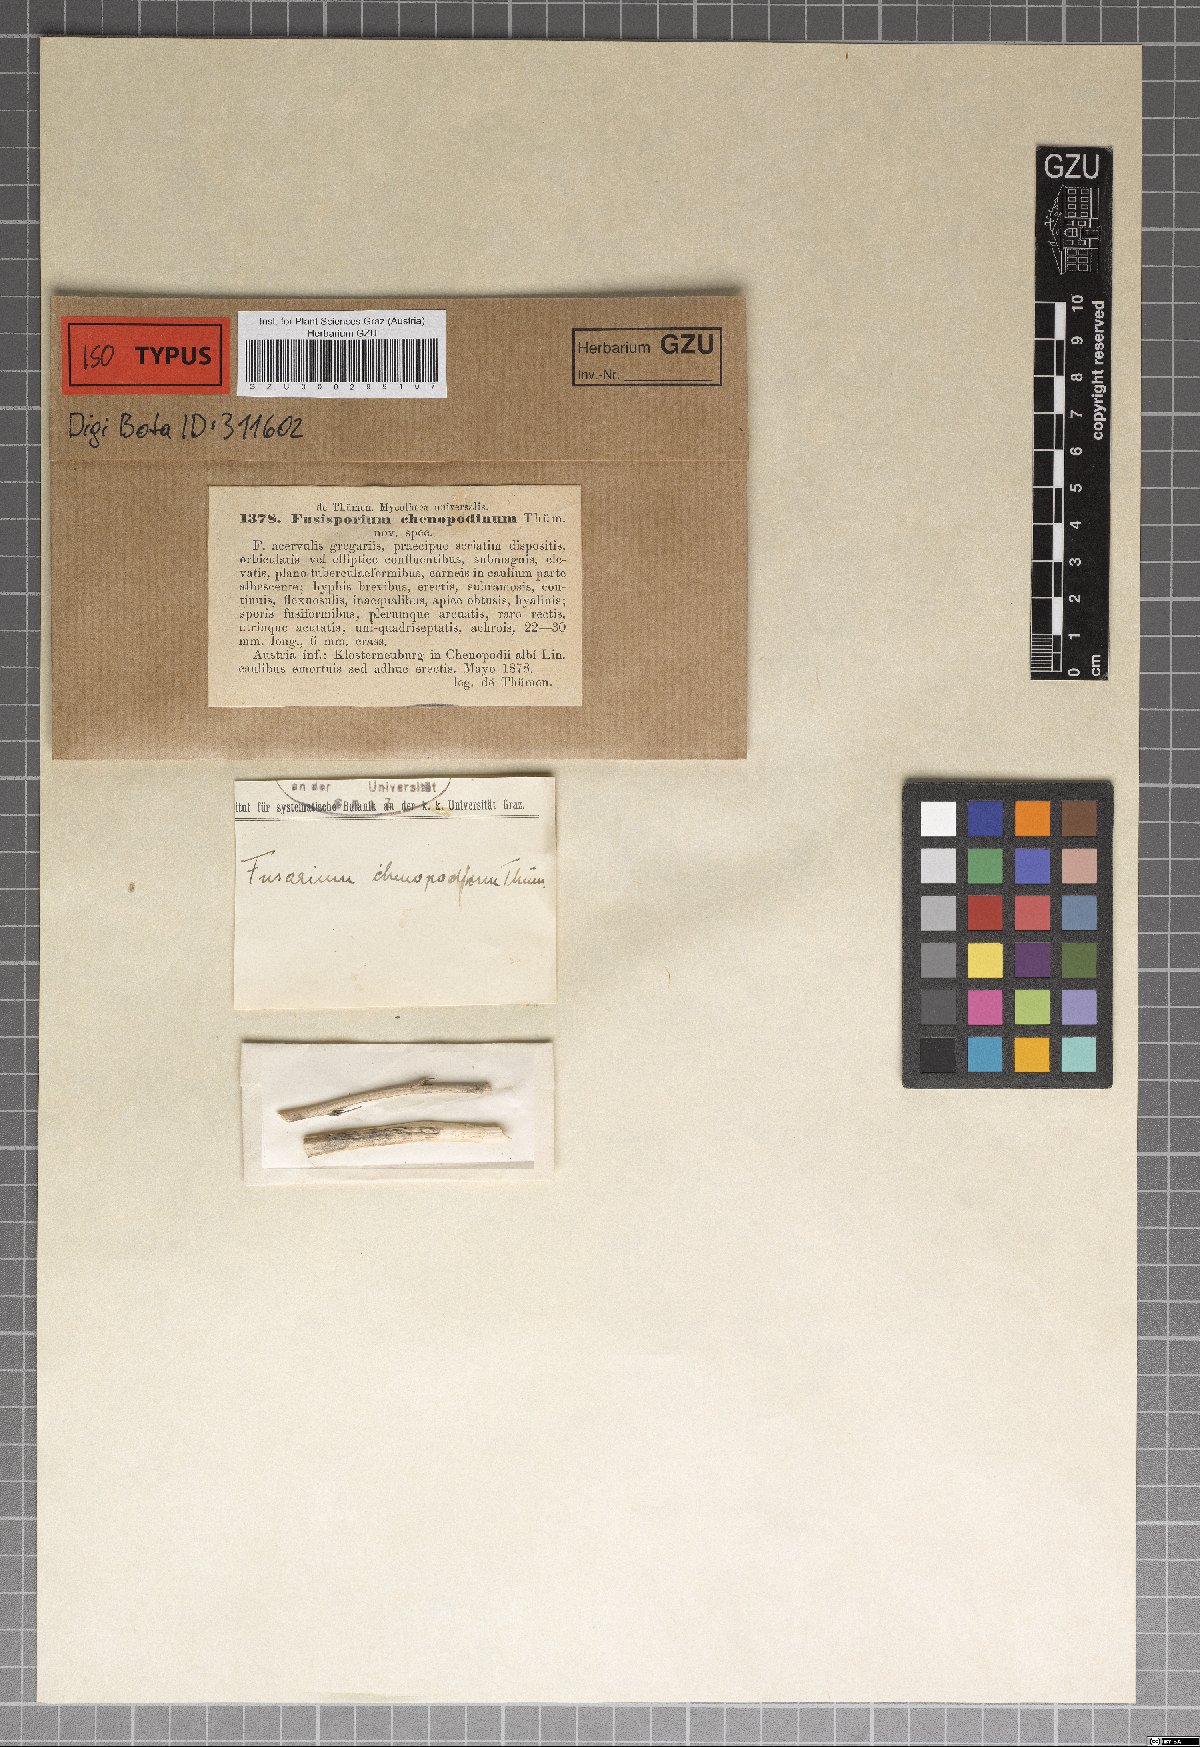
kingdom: Fungi
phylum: Ascomycota
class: Sordariomycetes
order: Hypocreales
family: Nectriaceae
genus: Fusisporium
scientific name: Fusisporium
